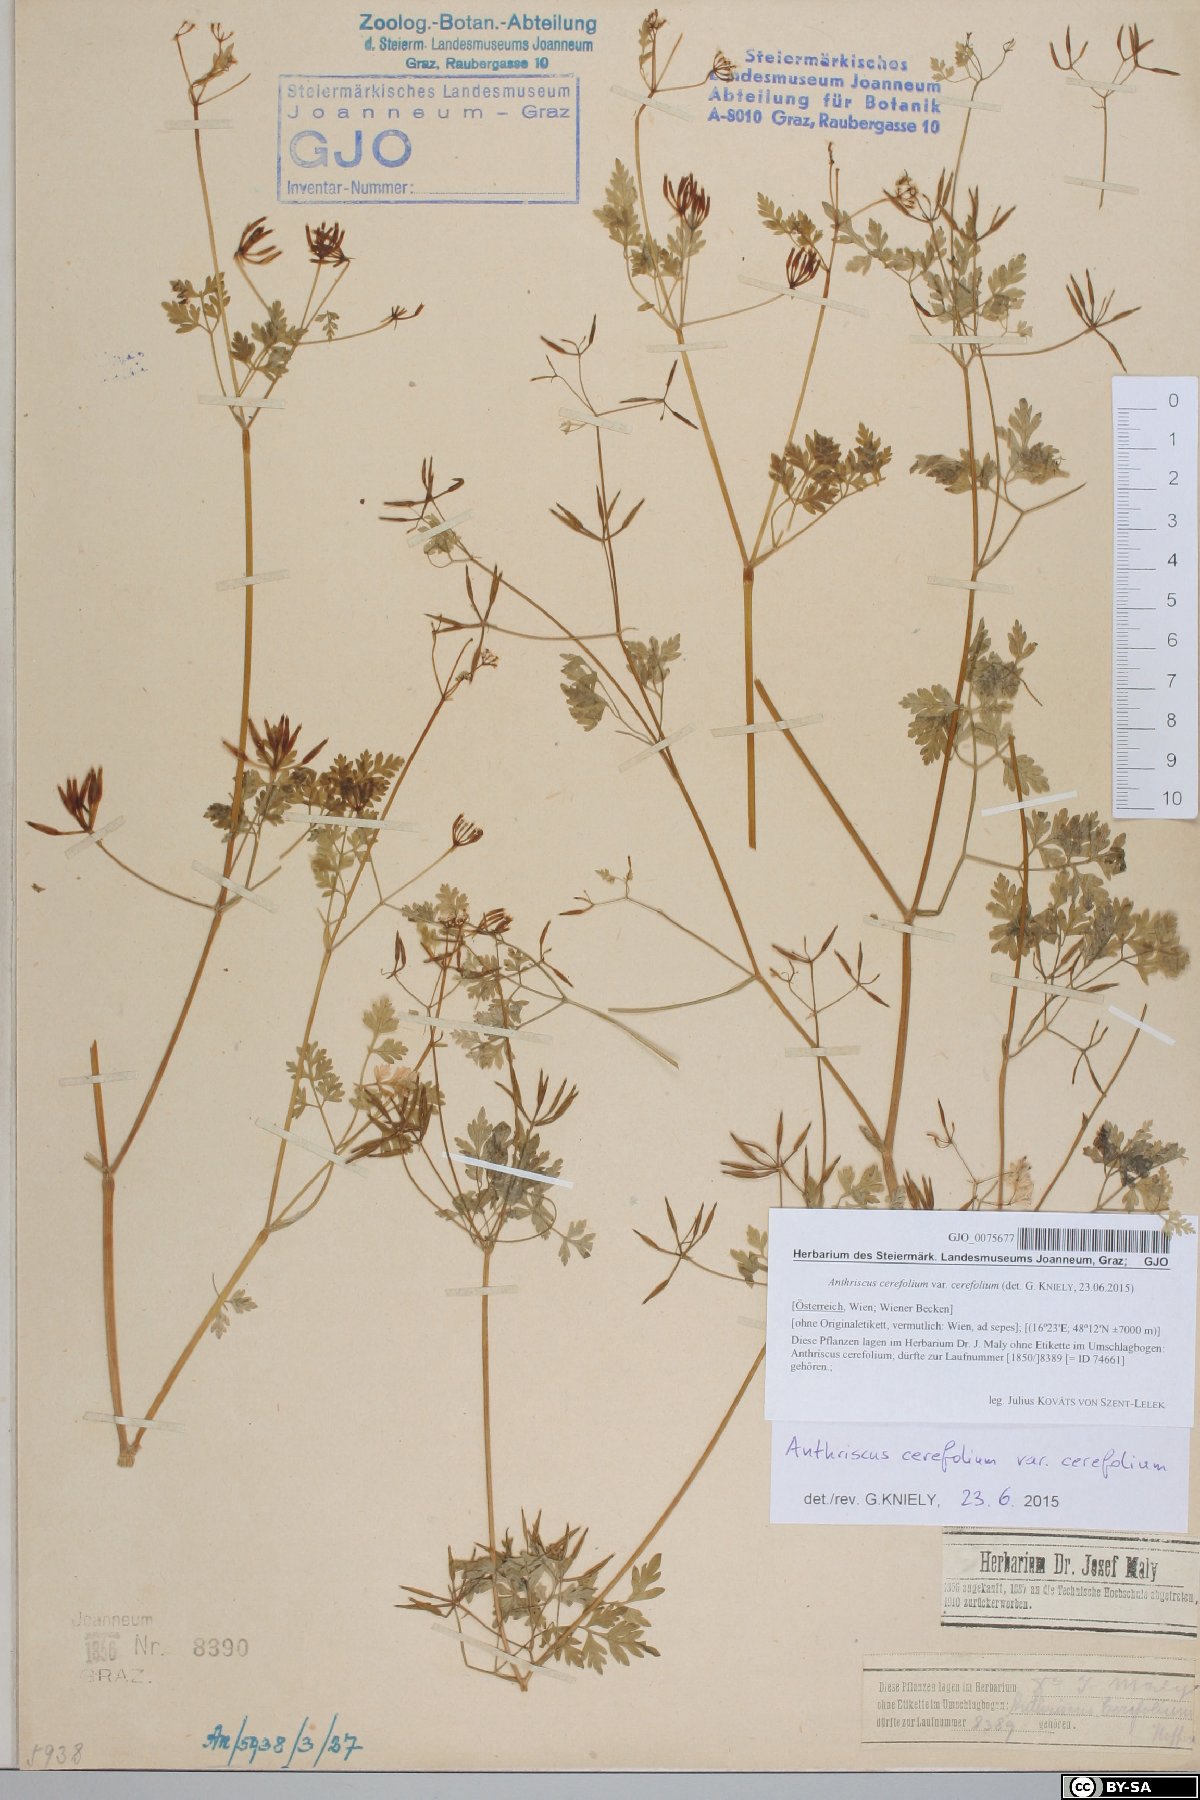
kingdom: Plantae
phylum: Tracheophyta
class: Magnoliopsida
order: Apiales
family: Apiaceae
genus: Anthriscus
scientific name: Anthriscus cerefolium
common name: Garden chervil
